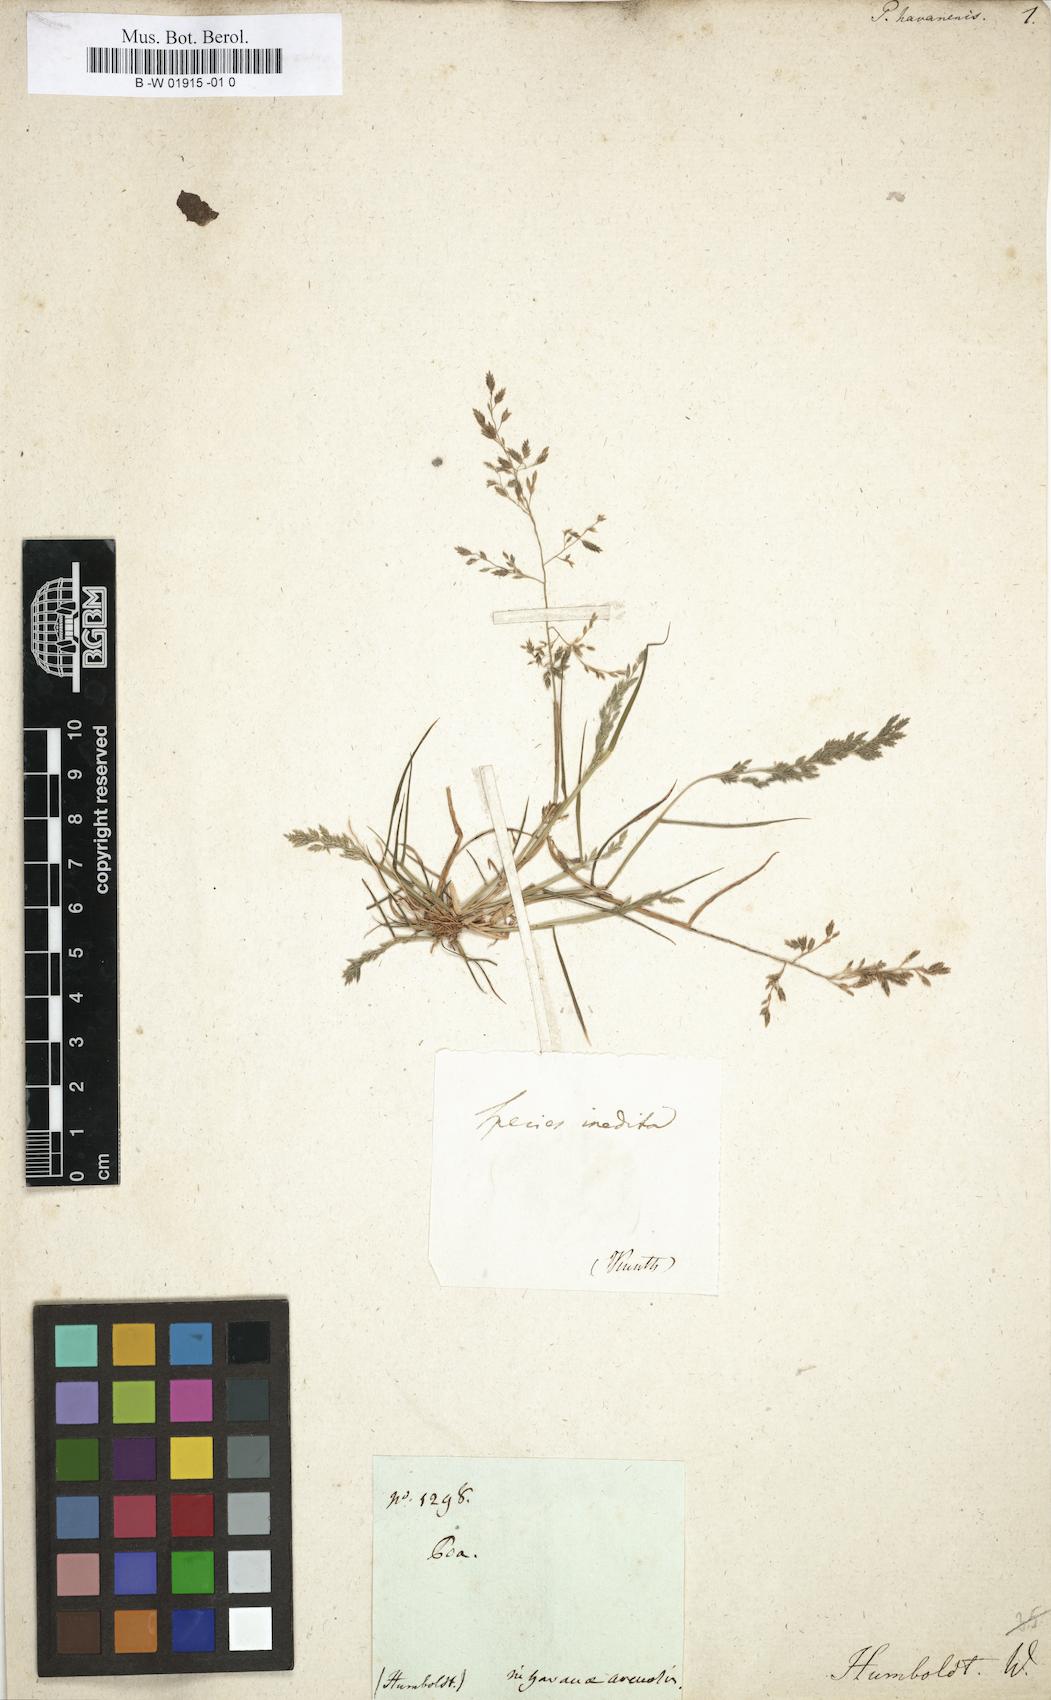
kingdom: Plantae
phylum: Tracheophyta
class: Liliopsida
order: Poales
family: Poaceae
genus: Eragrostis
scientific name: Eragrostis tephrosanthos
